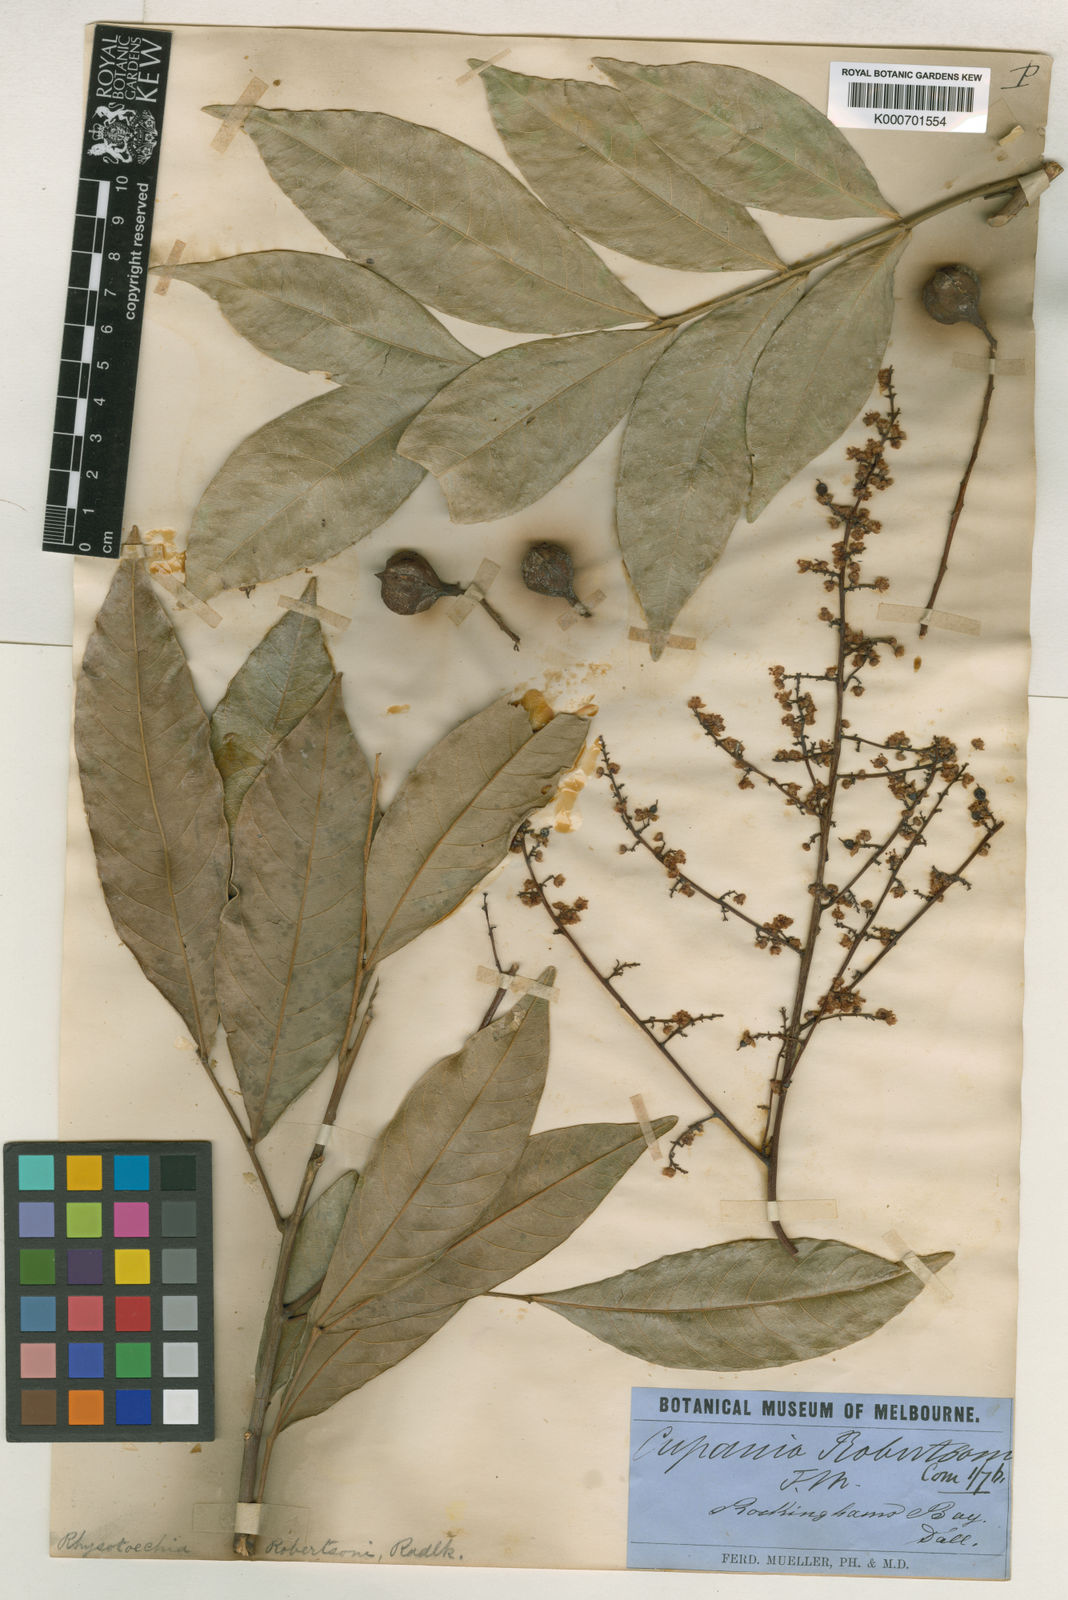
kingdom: Plantae
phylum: Tracheophyta
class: Magnoliopsida
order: Sapindales
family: Sapindaceae
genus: Rhysotoechia
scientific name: Rhysotoechia robertsonii
